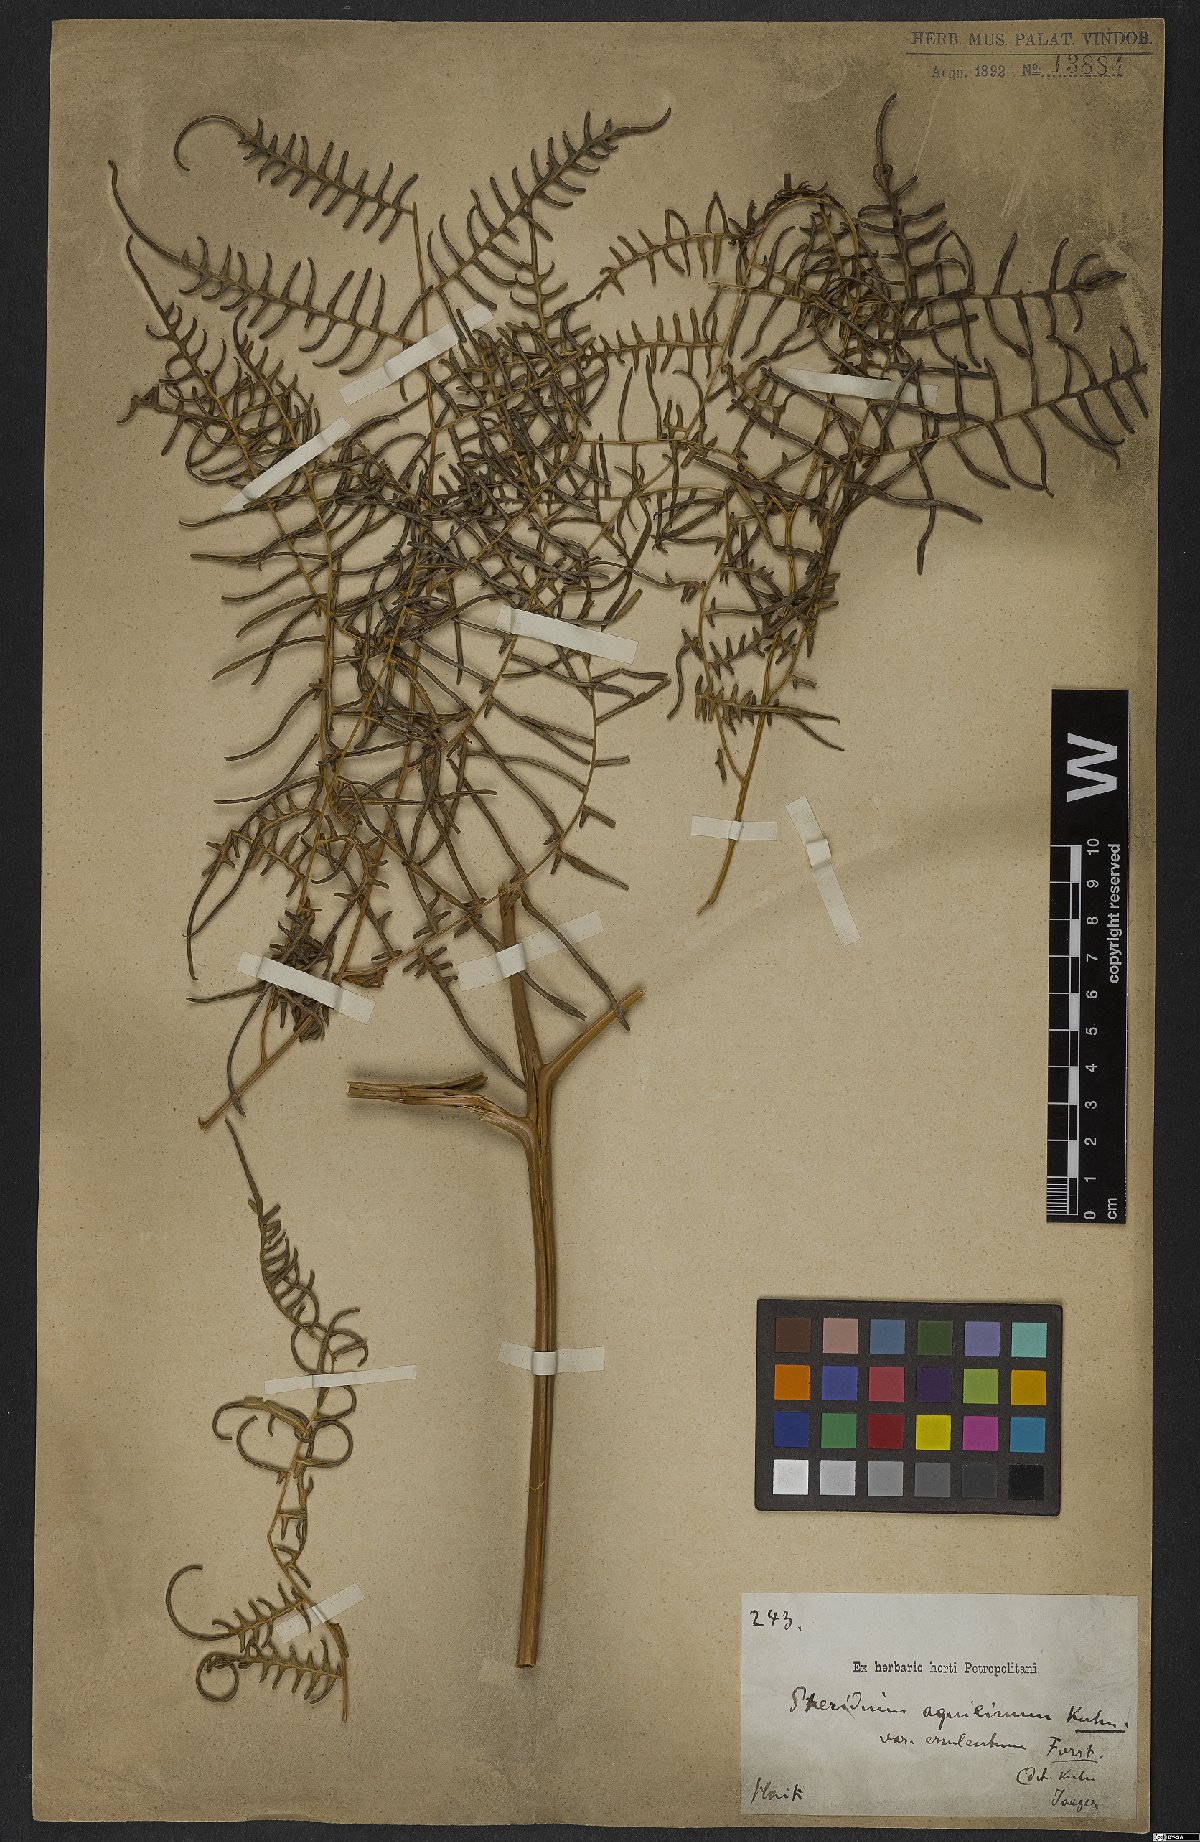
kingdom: Plantae
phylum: Tracheophyta
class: Polypodiopsida
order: Polypodiales
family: Dennstaedtiaceae
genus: Pteridium
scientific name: Pteridium esculentum
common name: Bracken fern
